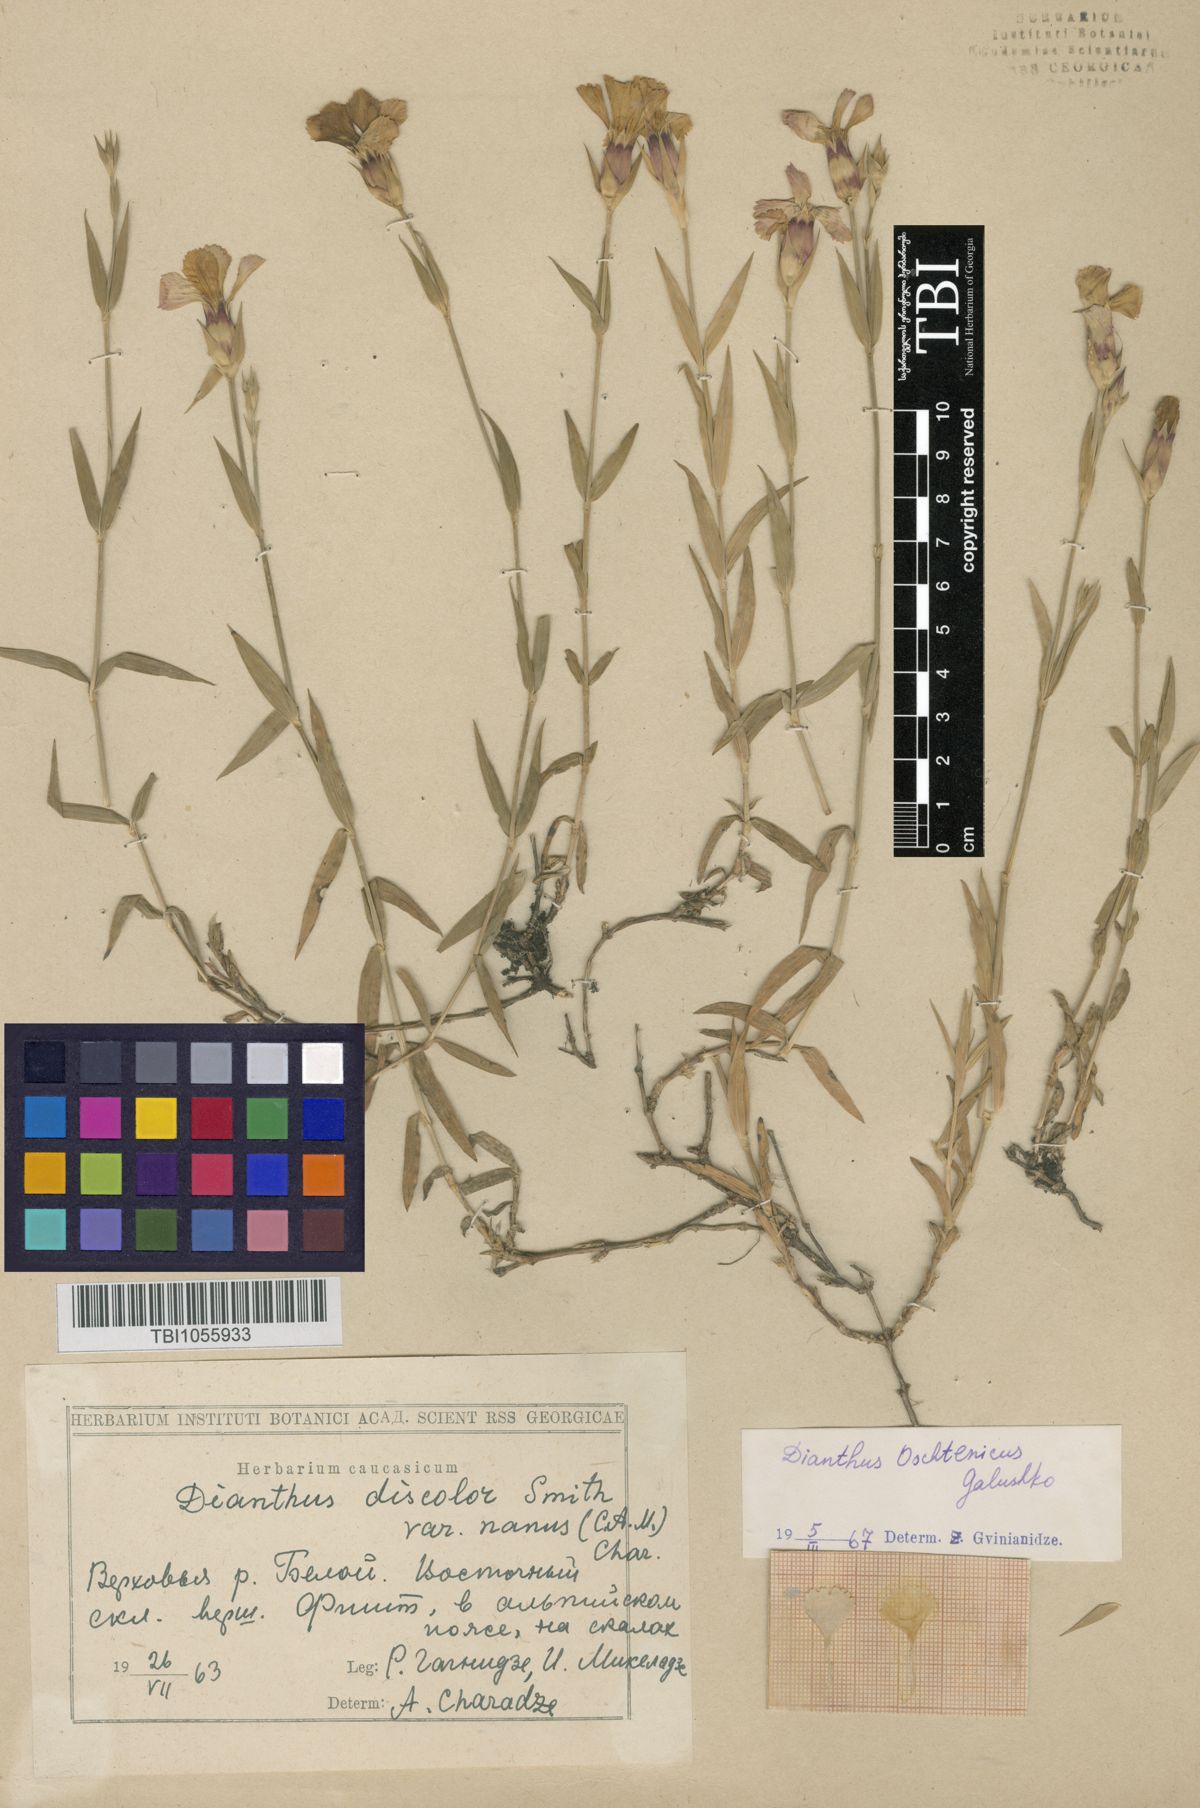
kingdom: Plantae
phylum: Tracheophyta
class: Magnoliopsida
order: Caryophyllales
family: Caryophyllaceae
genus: Dianthus
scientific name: Dianthus
